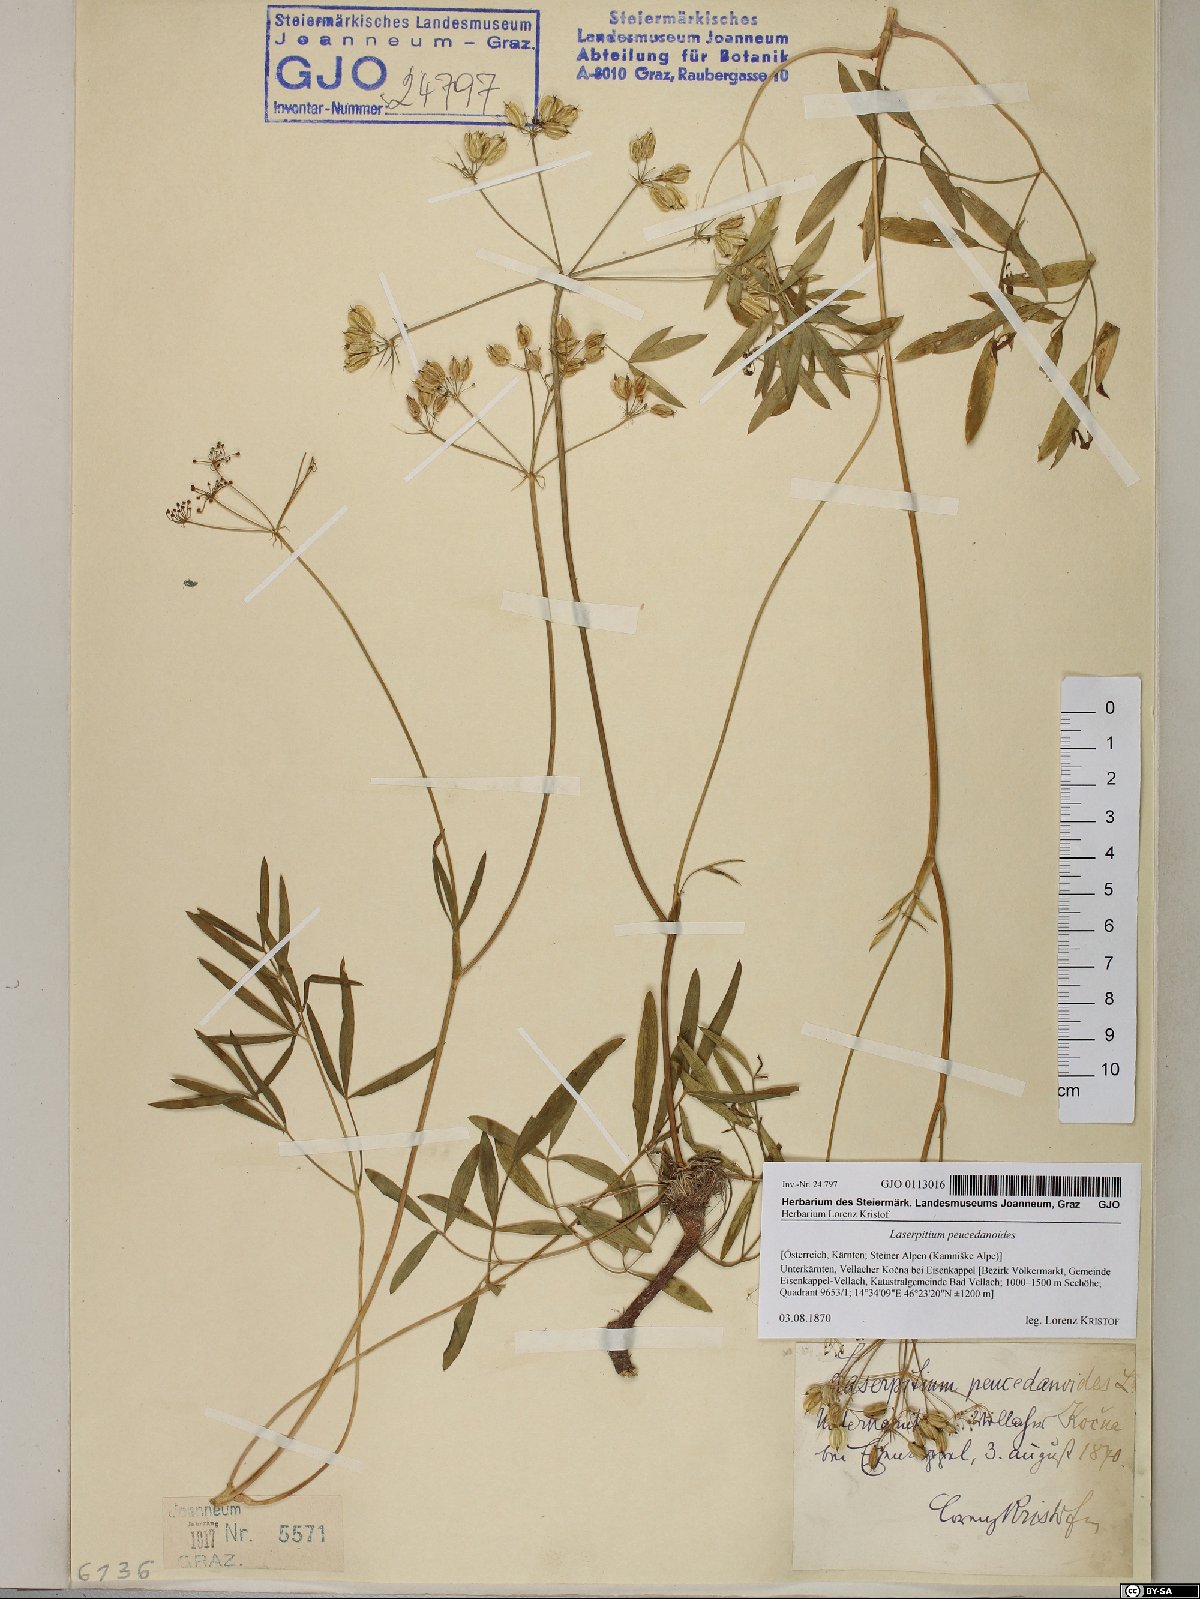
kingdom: Plantae
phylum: Tracheophyta
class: Magnoliopsida
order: Apiales
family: Apiaceae
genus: Laserpitium
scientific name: Laserpitium peucedanoides
